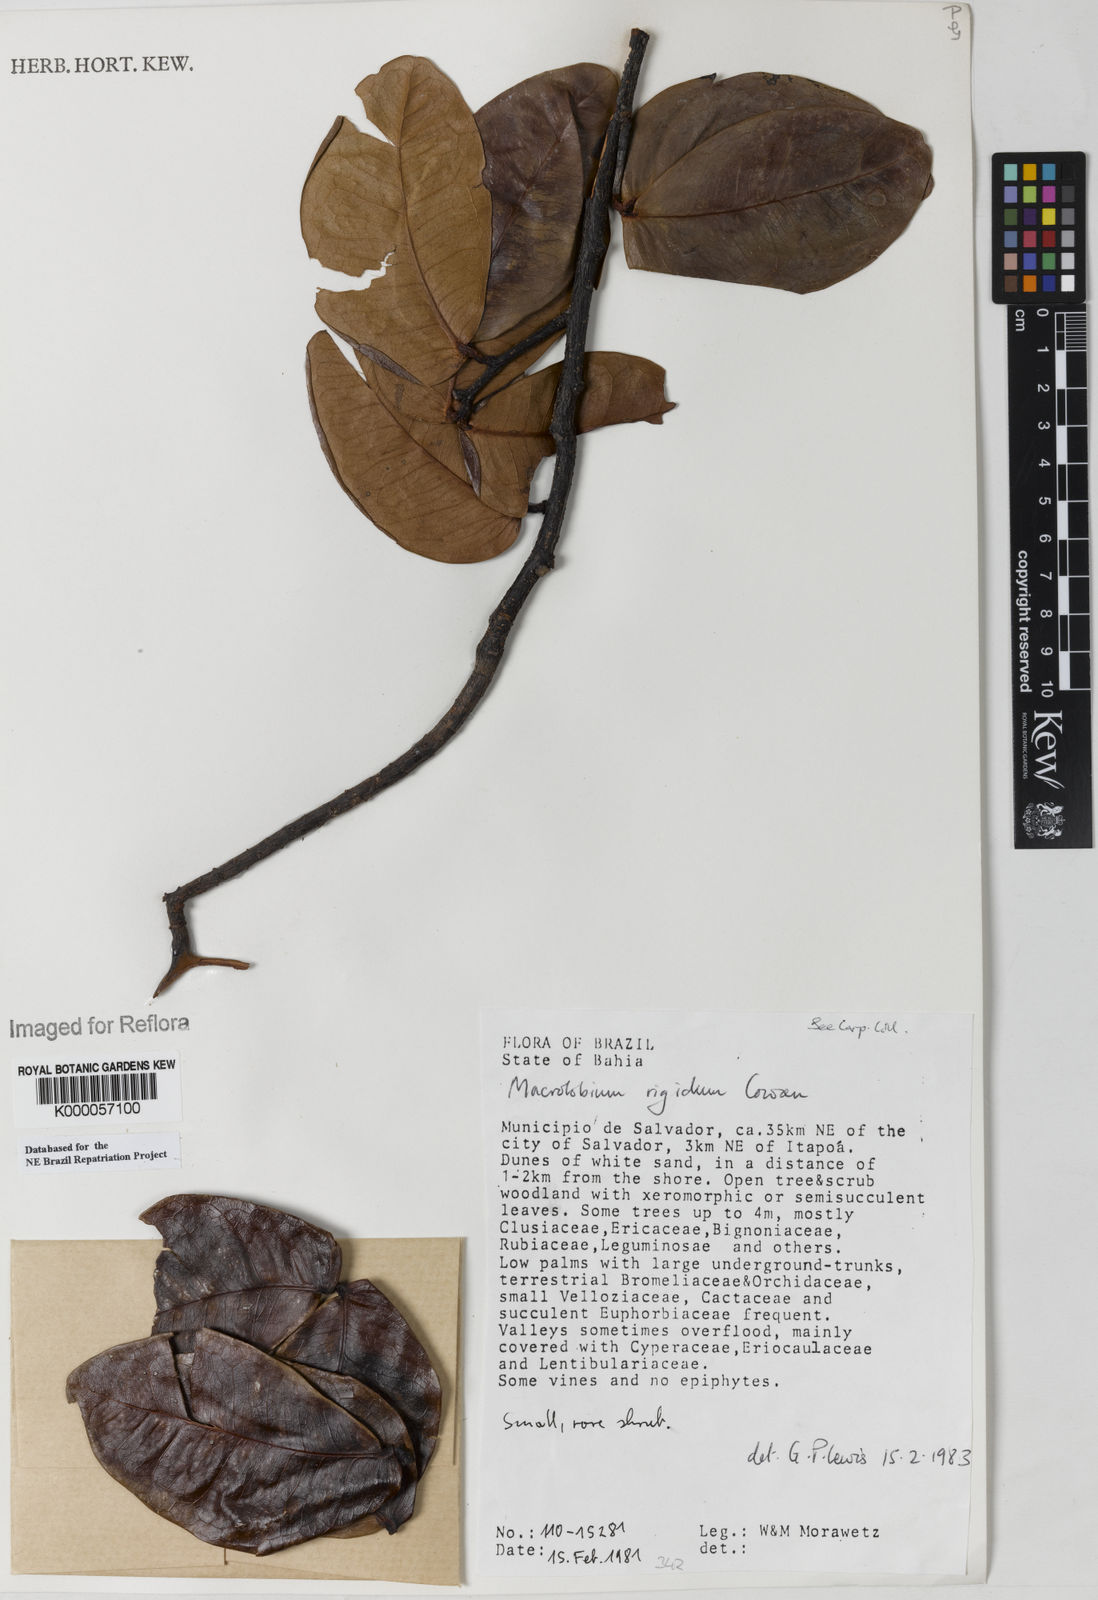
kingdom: Plantae
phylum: Tracheophyta
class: Magnoliopsida
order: Fabales
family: Fabaceae
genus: Macrolobium
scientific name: Macrolobium rigidum
